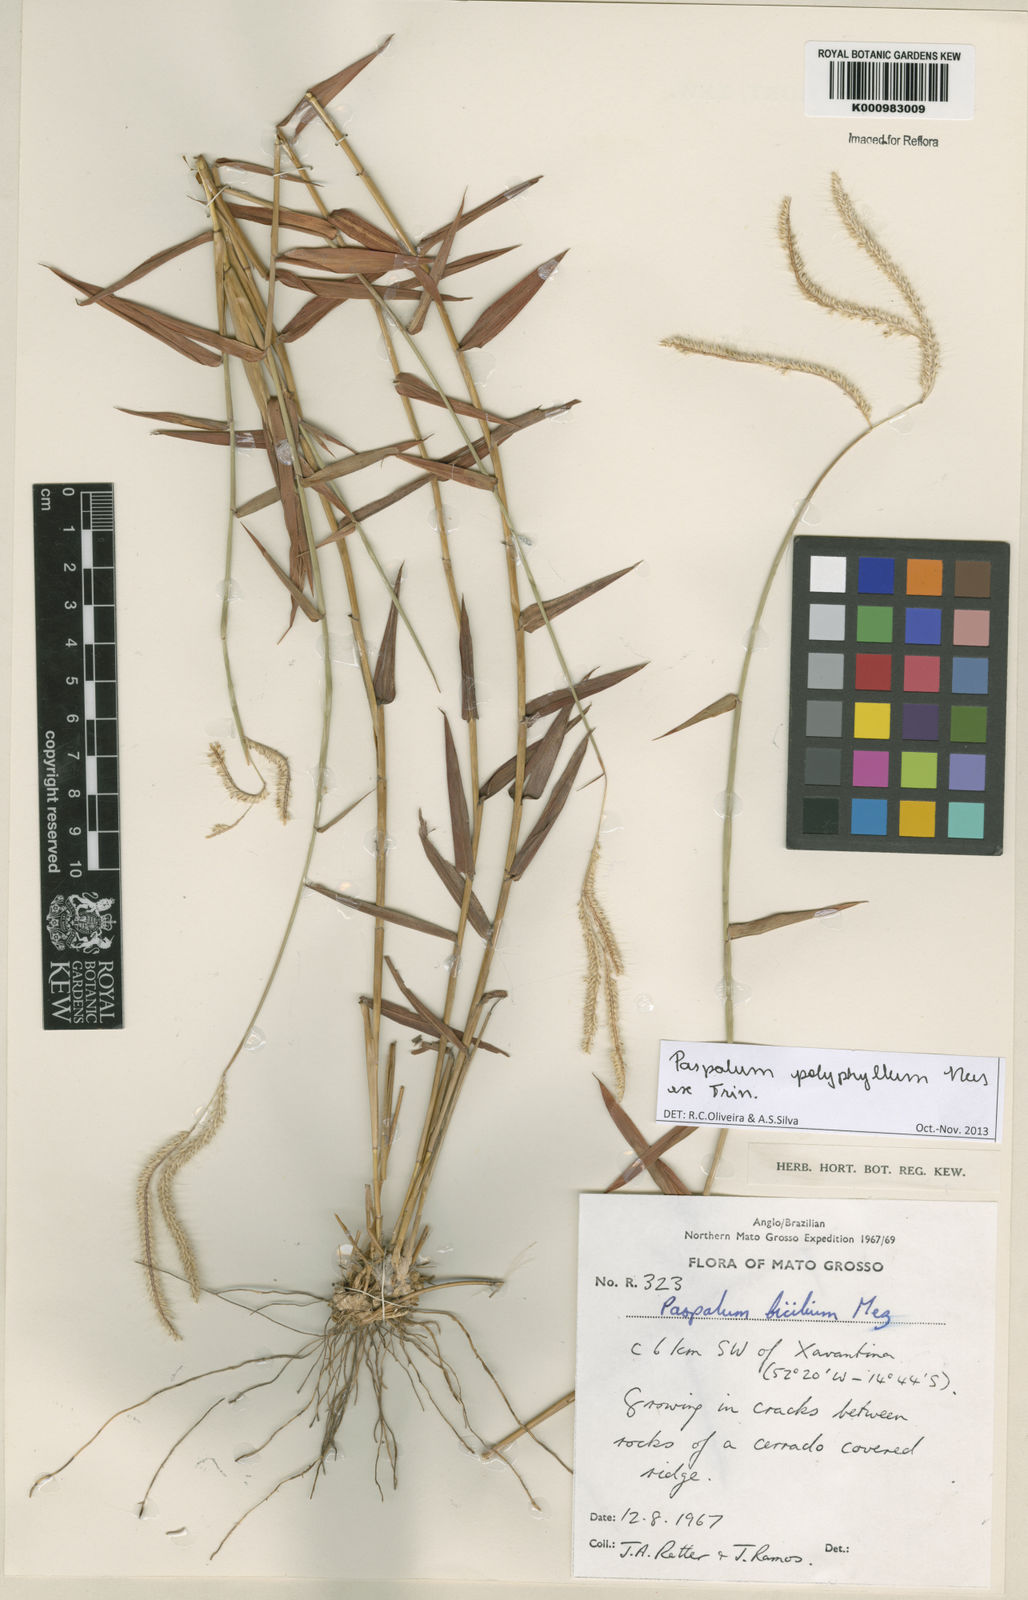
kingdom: Plantae
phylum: Tracheophyta
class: Liliopsida
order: Poales
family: Poaceae
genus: Paspalum
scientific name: Paspalum
